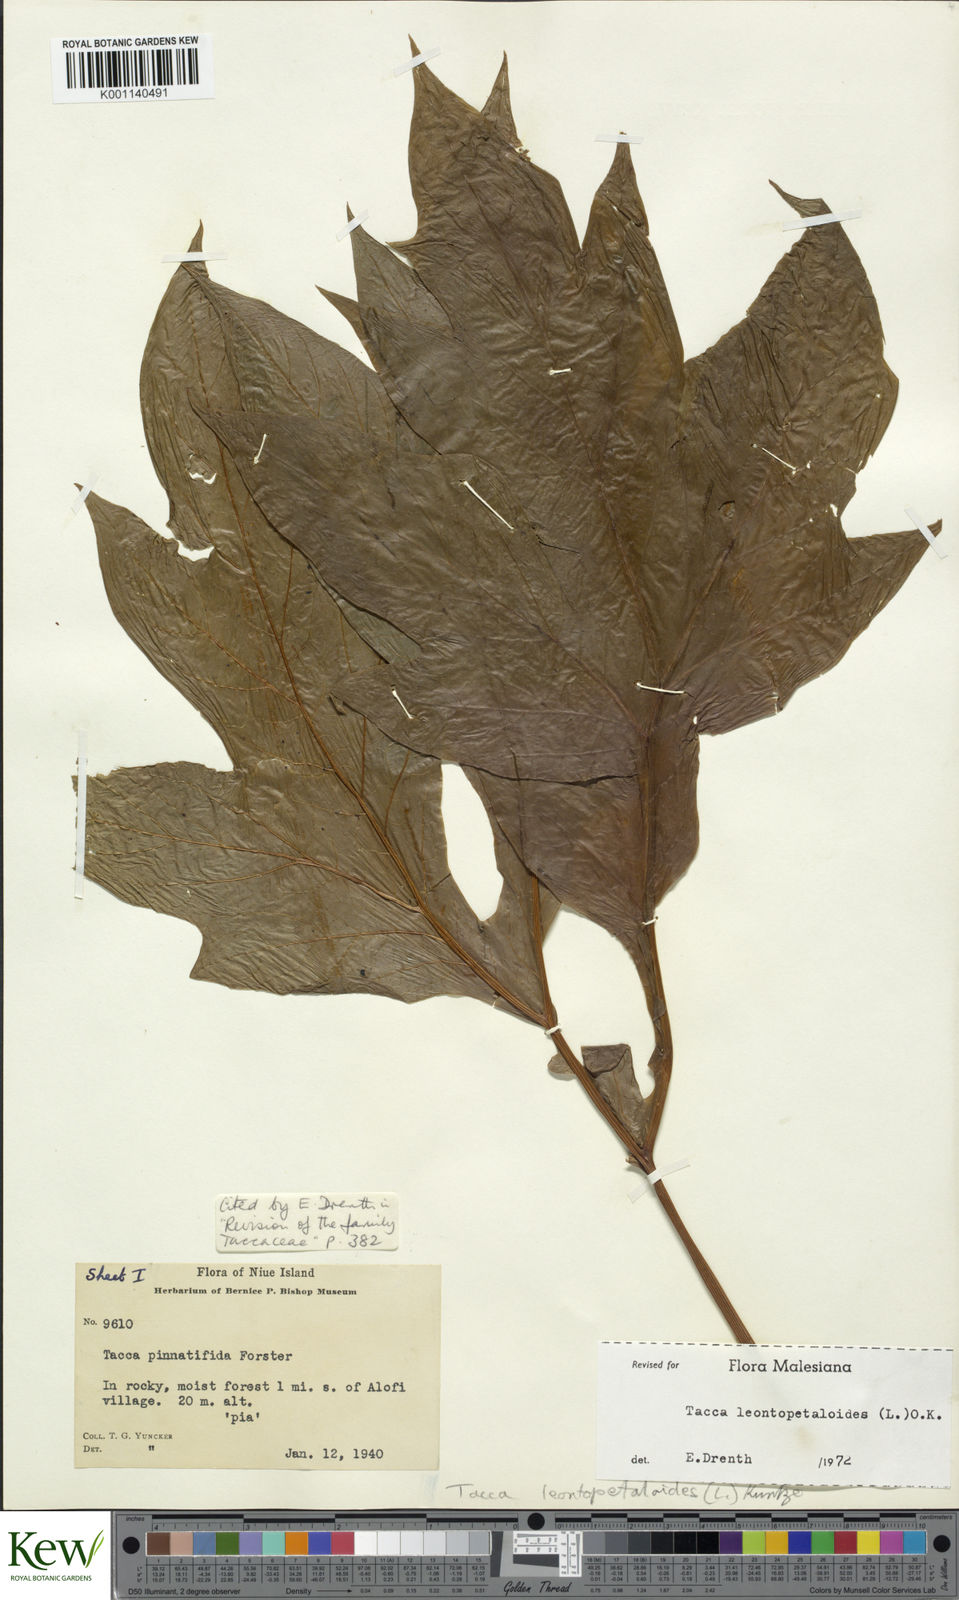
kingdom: Plantae
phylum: Tracheophyta
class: Liliopsida
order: Dioscoreales
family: Dioscoreaceae
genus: Tacca
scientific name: Tacca leontopetaloides
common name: Arrowroot
